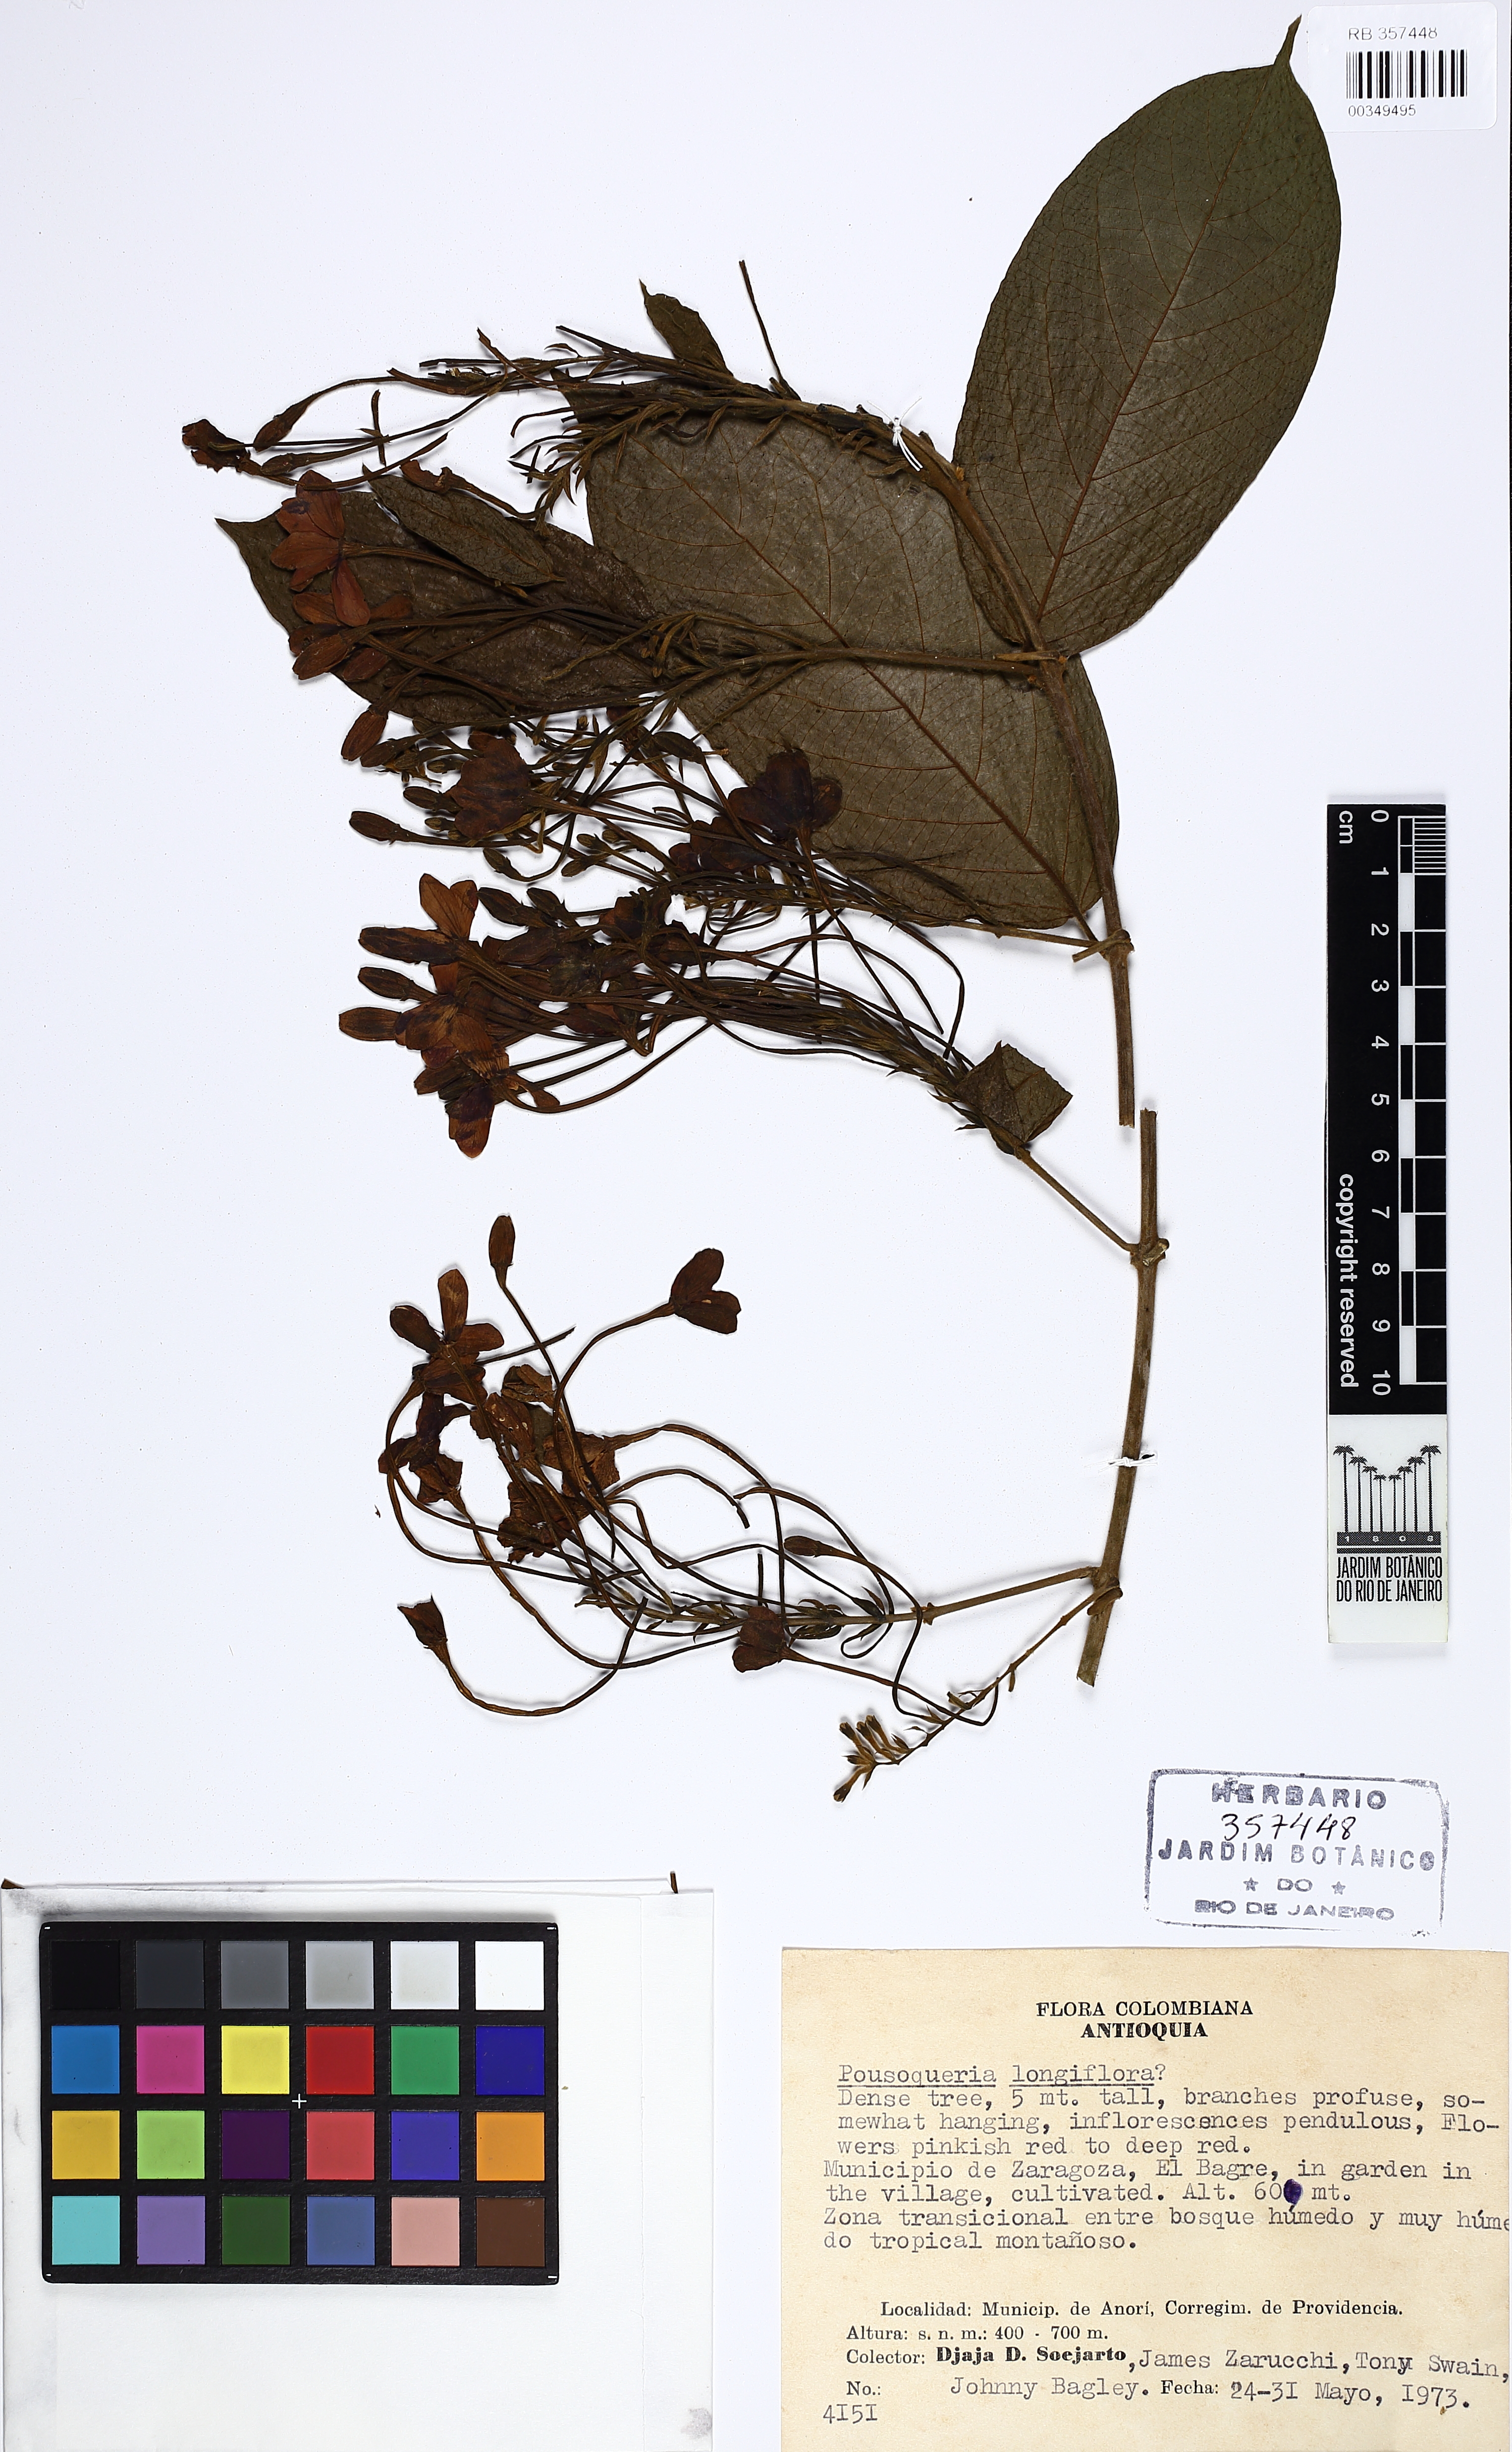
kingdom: Plantae
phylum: Tracheophyta
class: Magnoliopsida
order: Gentianales
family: Rubiaceae
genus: Posoqueria
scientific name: Posoqueria longiflora
